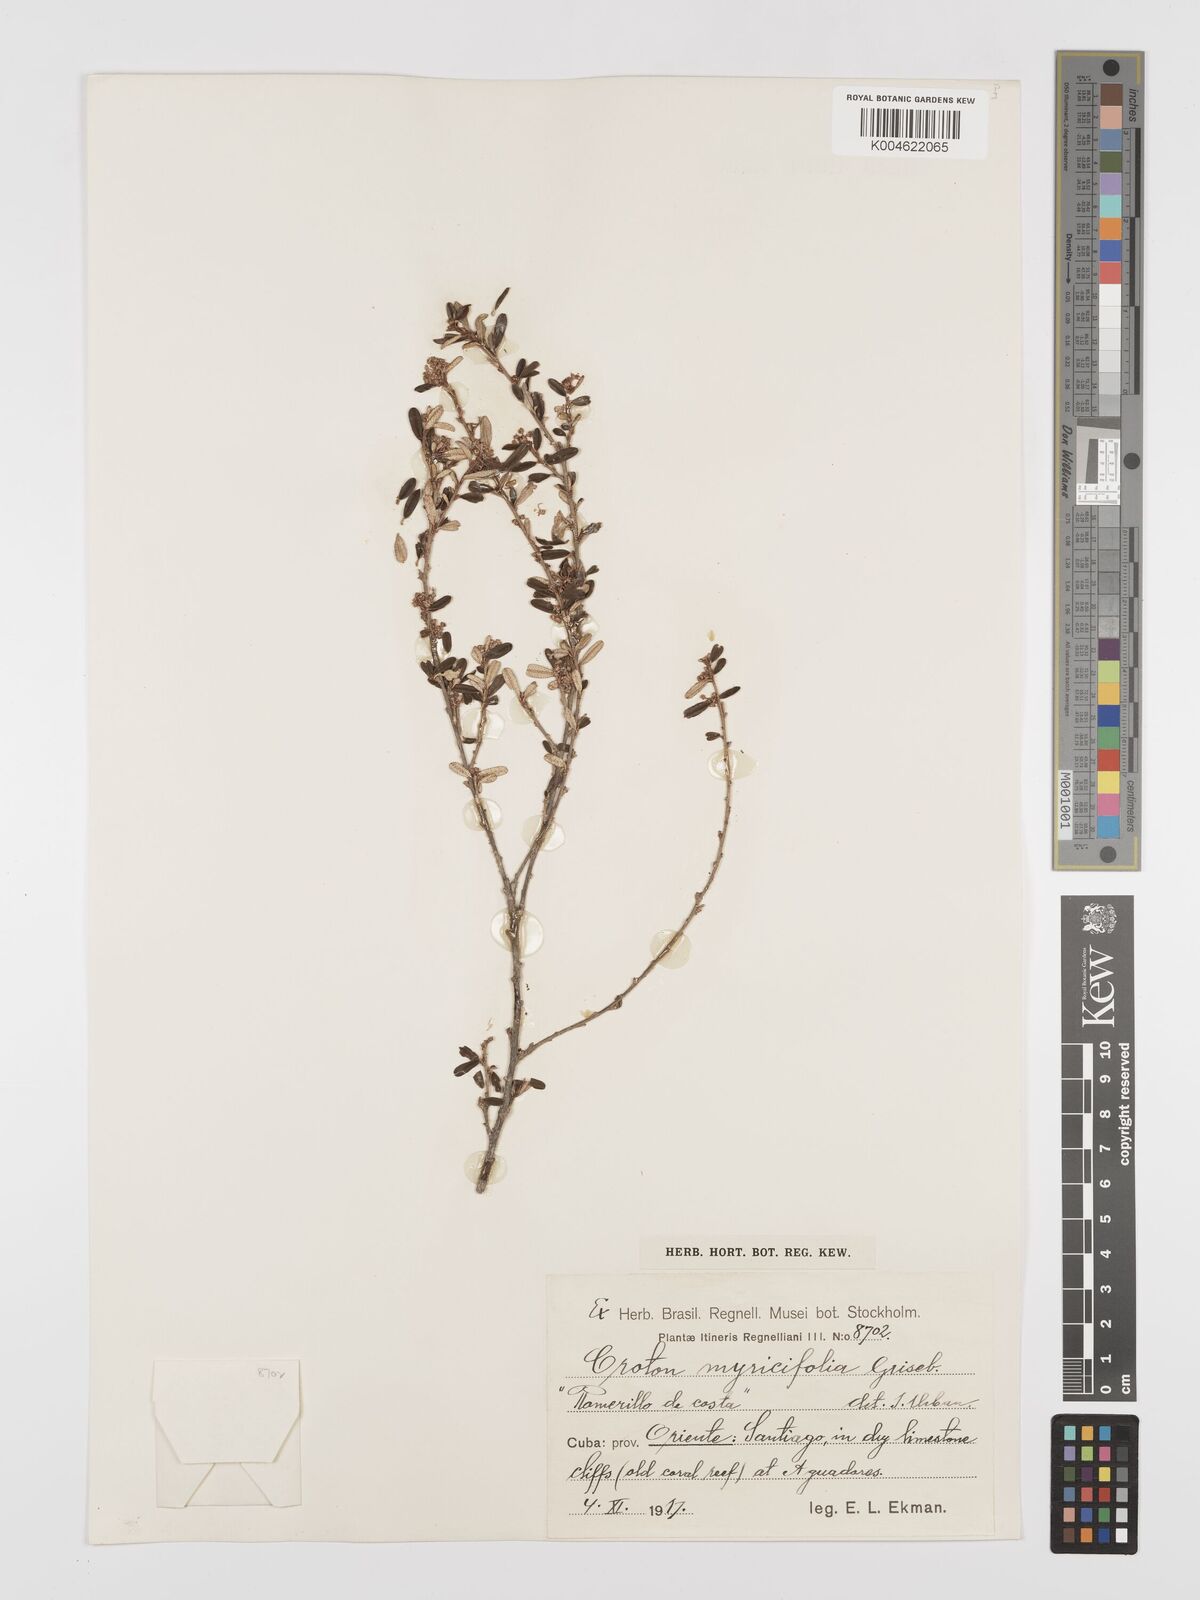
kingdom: Plantae
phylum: Tracheophyta
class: Magnoliopsida
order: Malpighiales
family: Euphorbiaceae
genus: Croton
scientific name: Croton myricifolius
